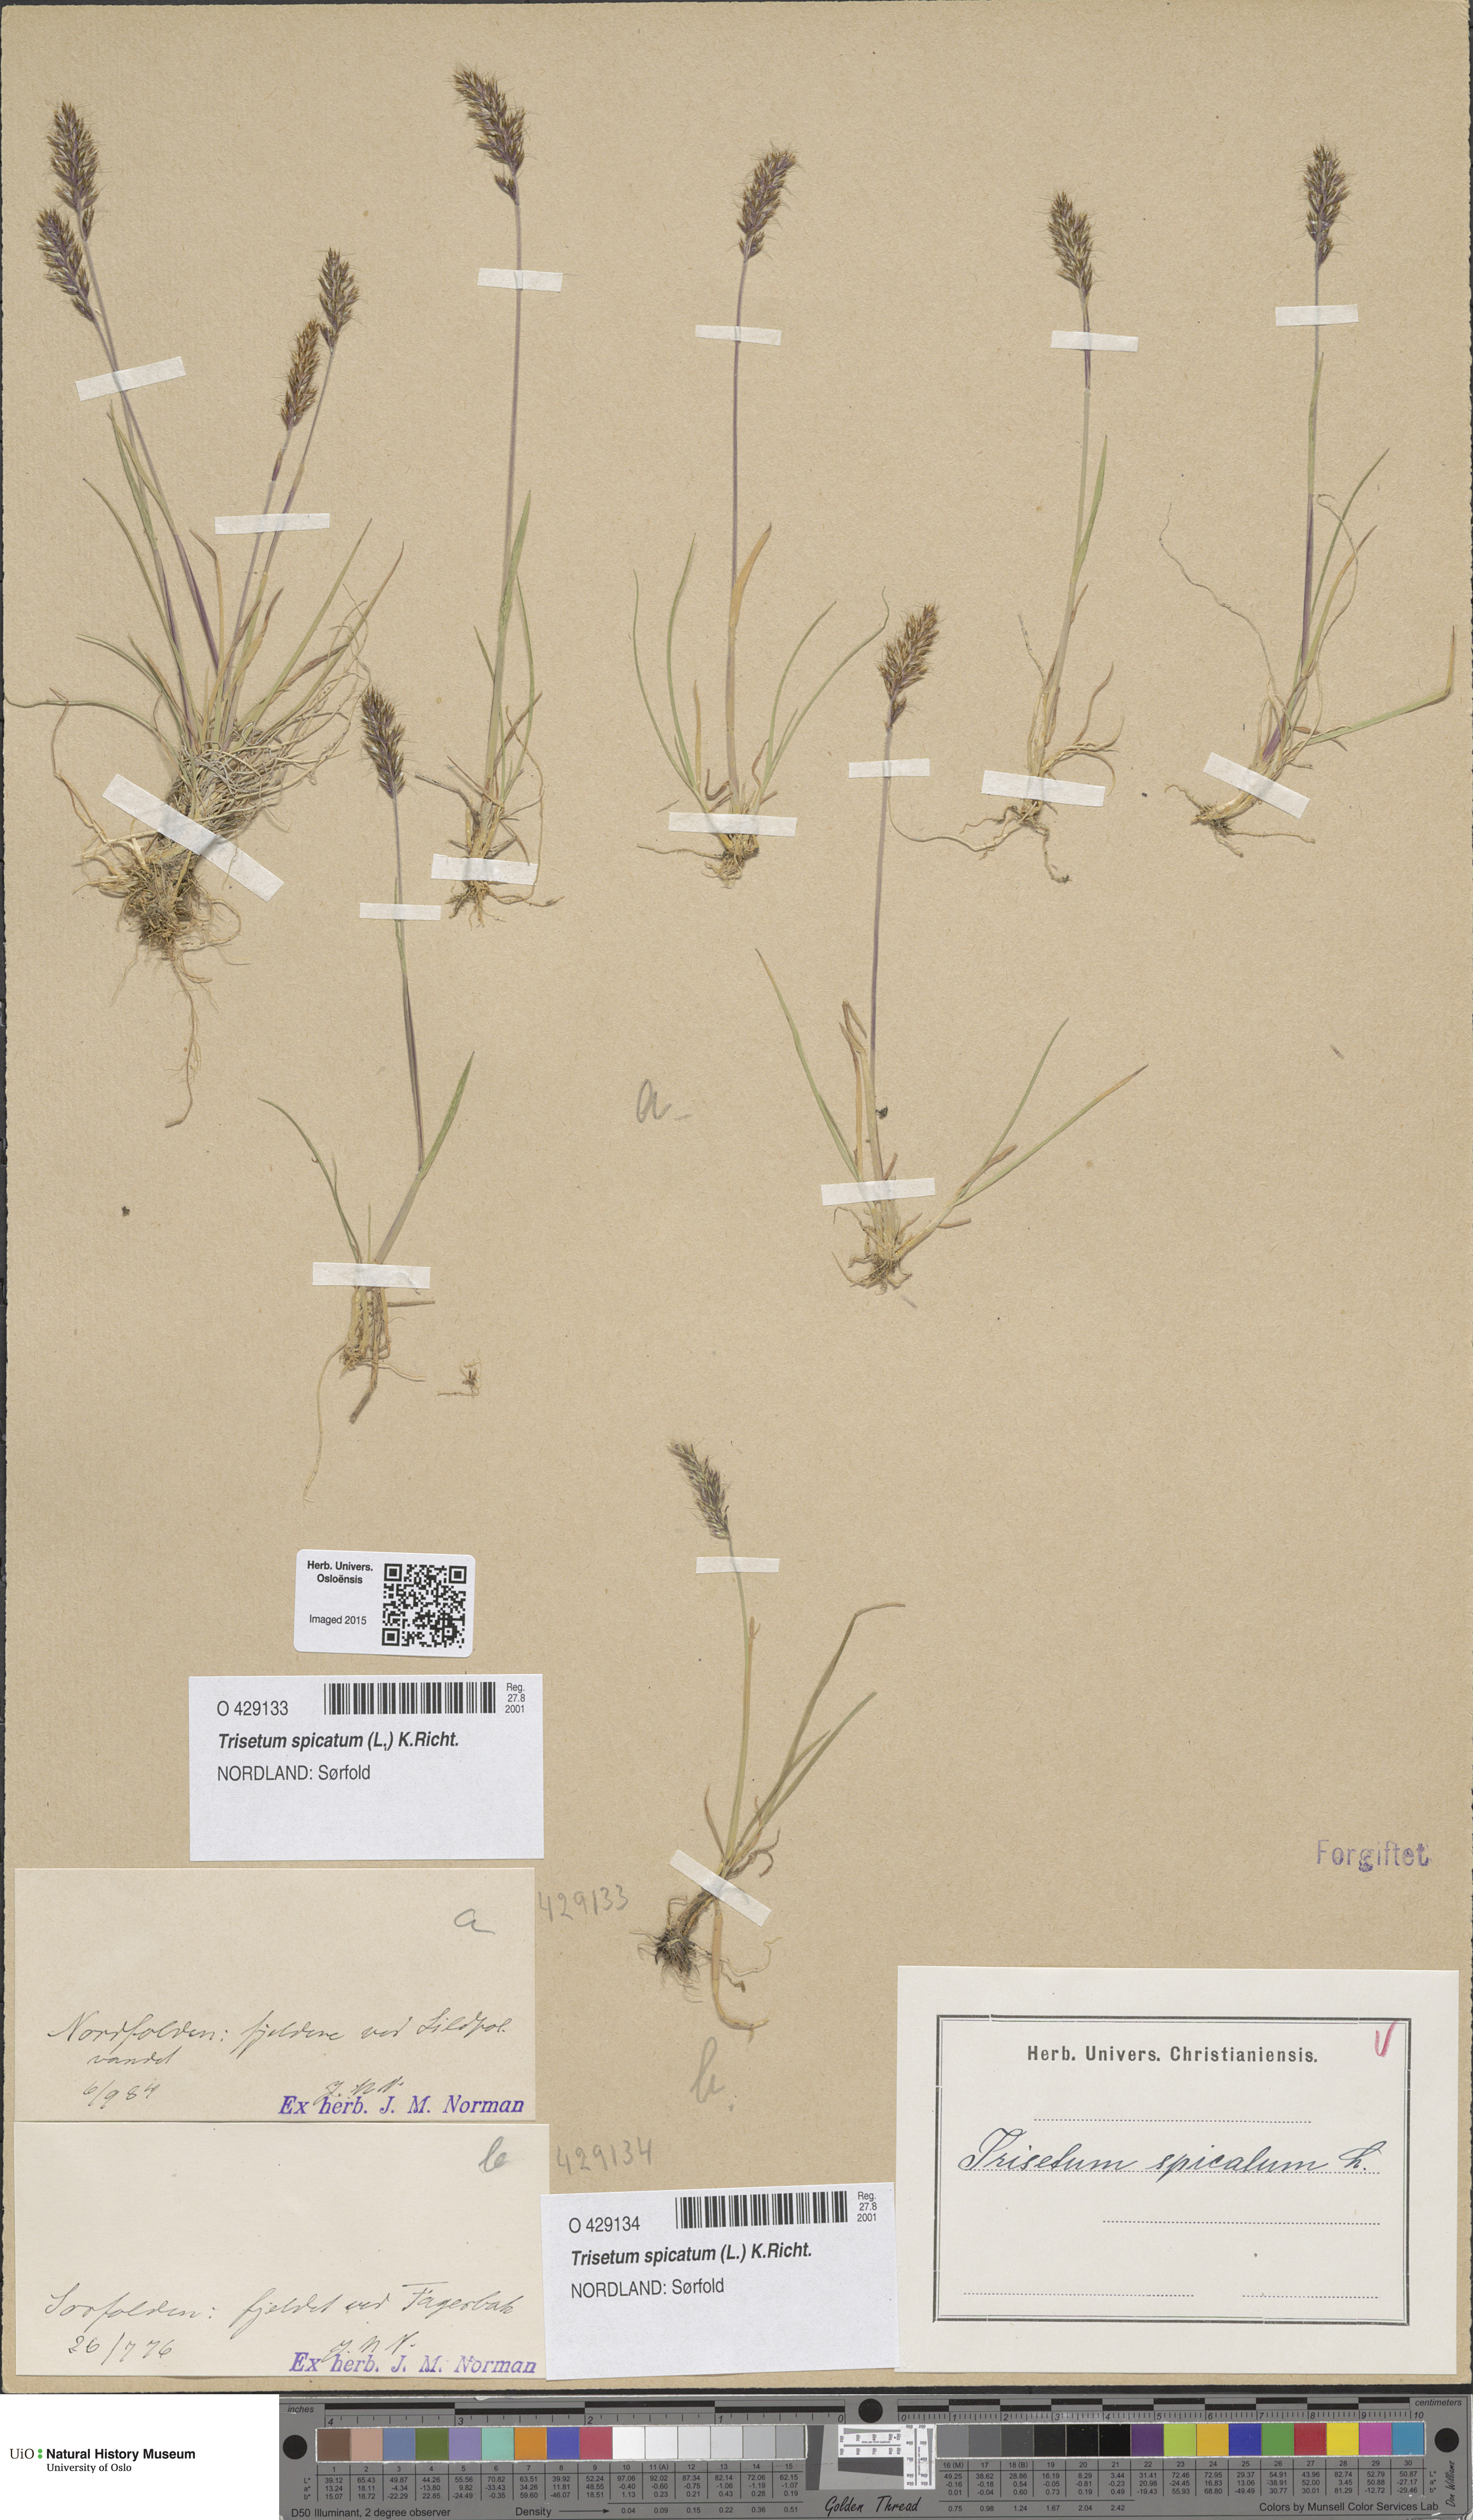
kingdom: Plantae
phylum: Tracheophyta
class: Liliopsida
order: Poales
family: Poaceae
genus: Koeleria
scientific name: Koeleria spicata
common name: Mountain trisetum
